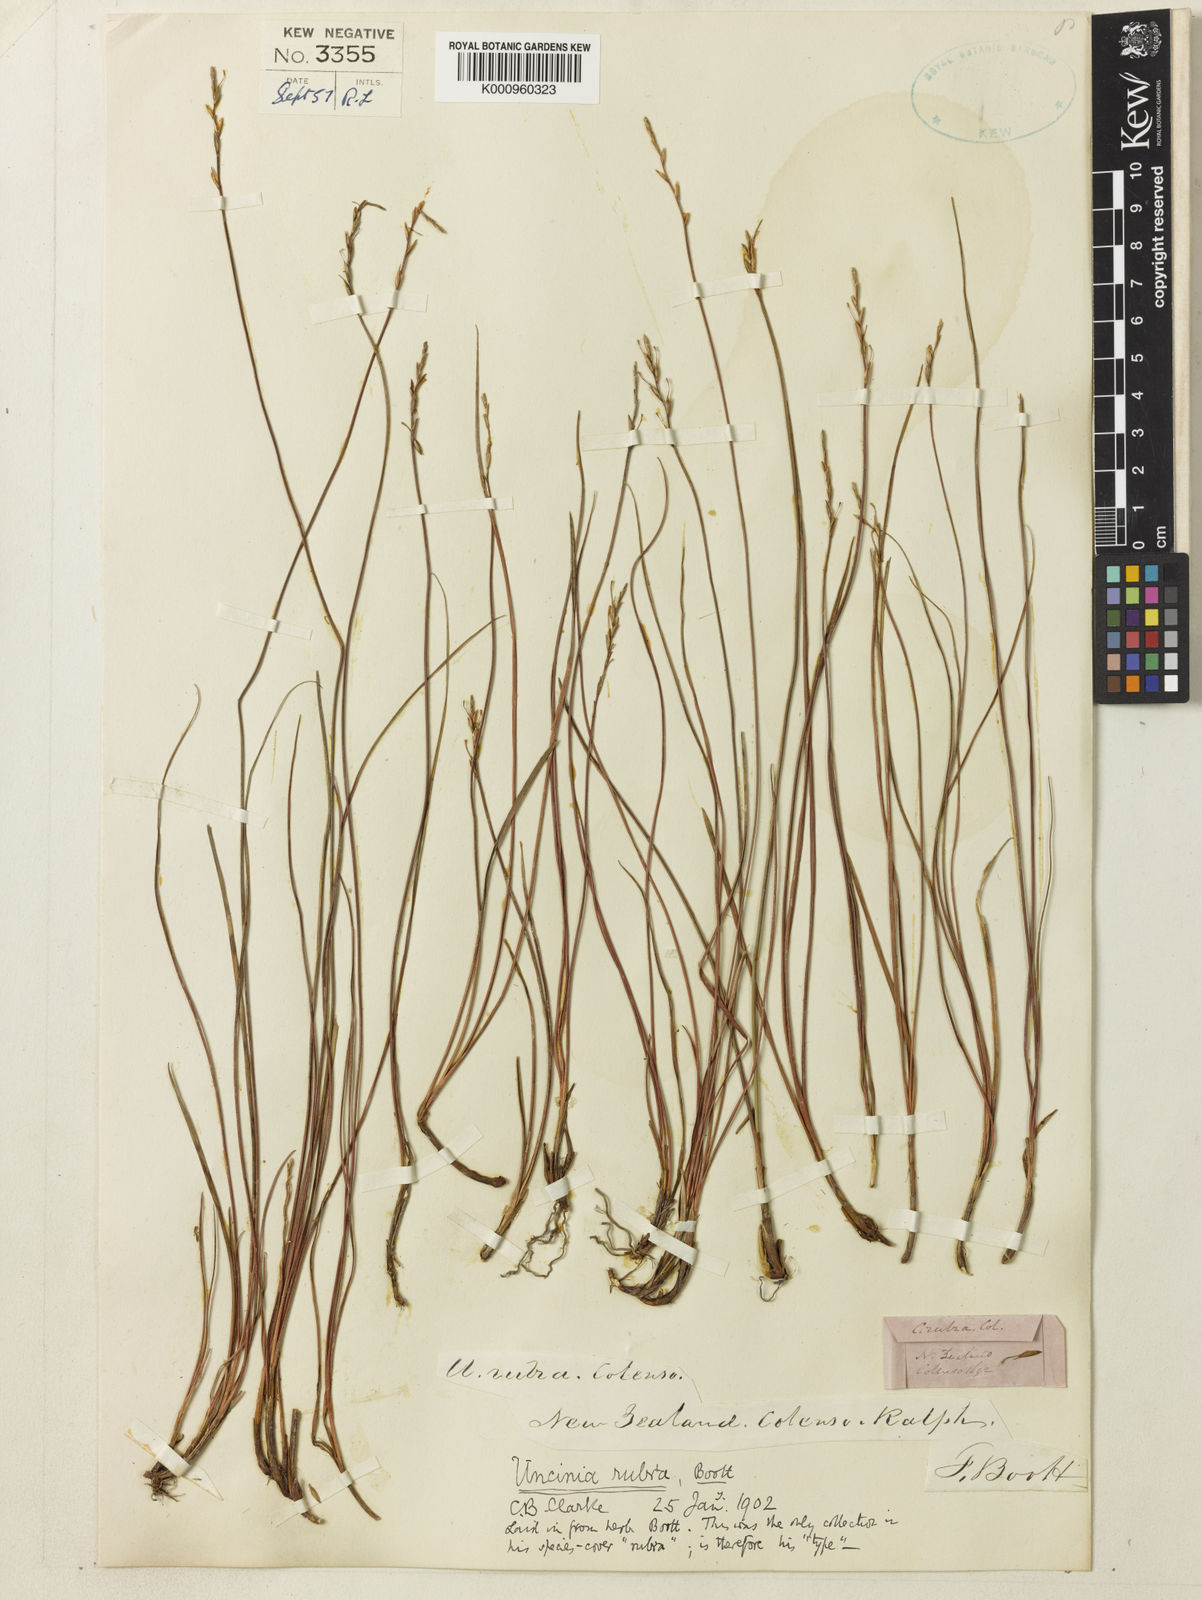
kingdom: Plantae
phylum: Tracheophyta
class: Liliopsida
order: Poales
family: Cyperaceae
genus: Carex
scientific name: Carex punicea
